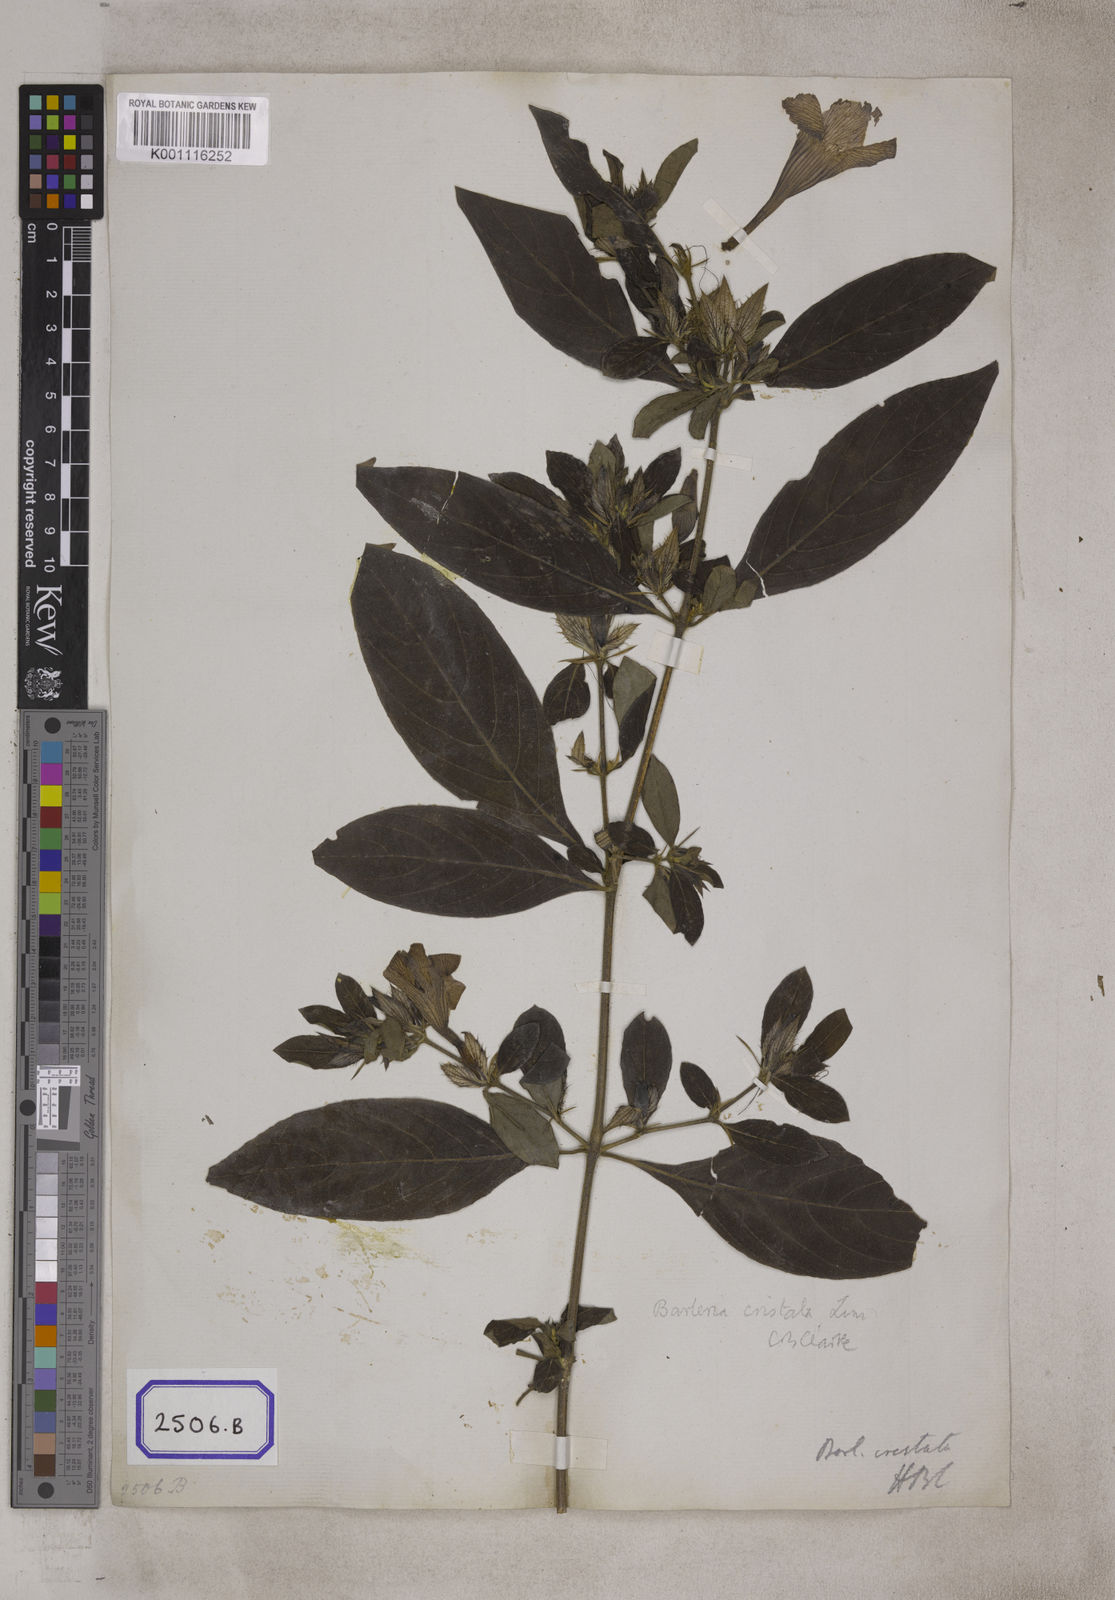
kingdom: Plantae
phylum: Tracheophyta
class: Magnoliopsida
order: Lamiales
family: Acanthaceae
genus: Barleria
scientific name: Barleria cristata
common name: Crested philippine violet
